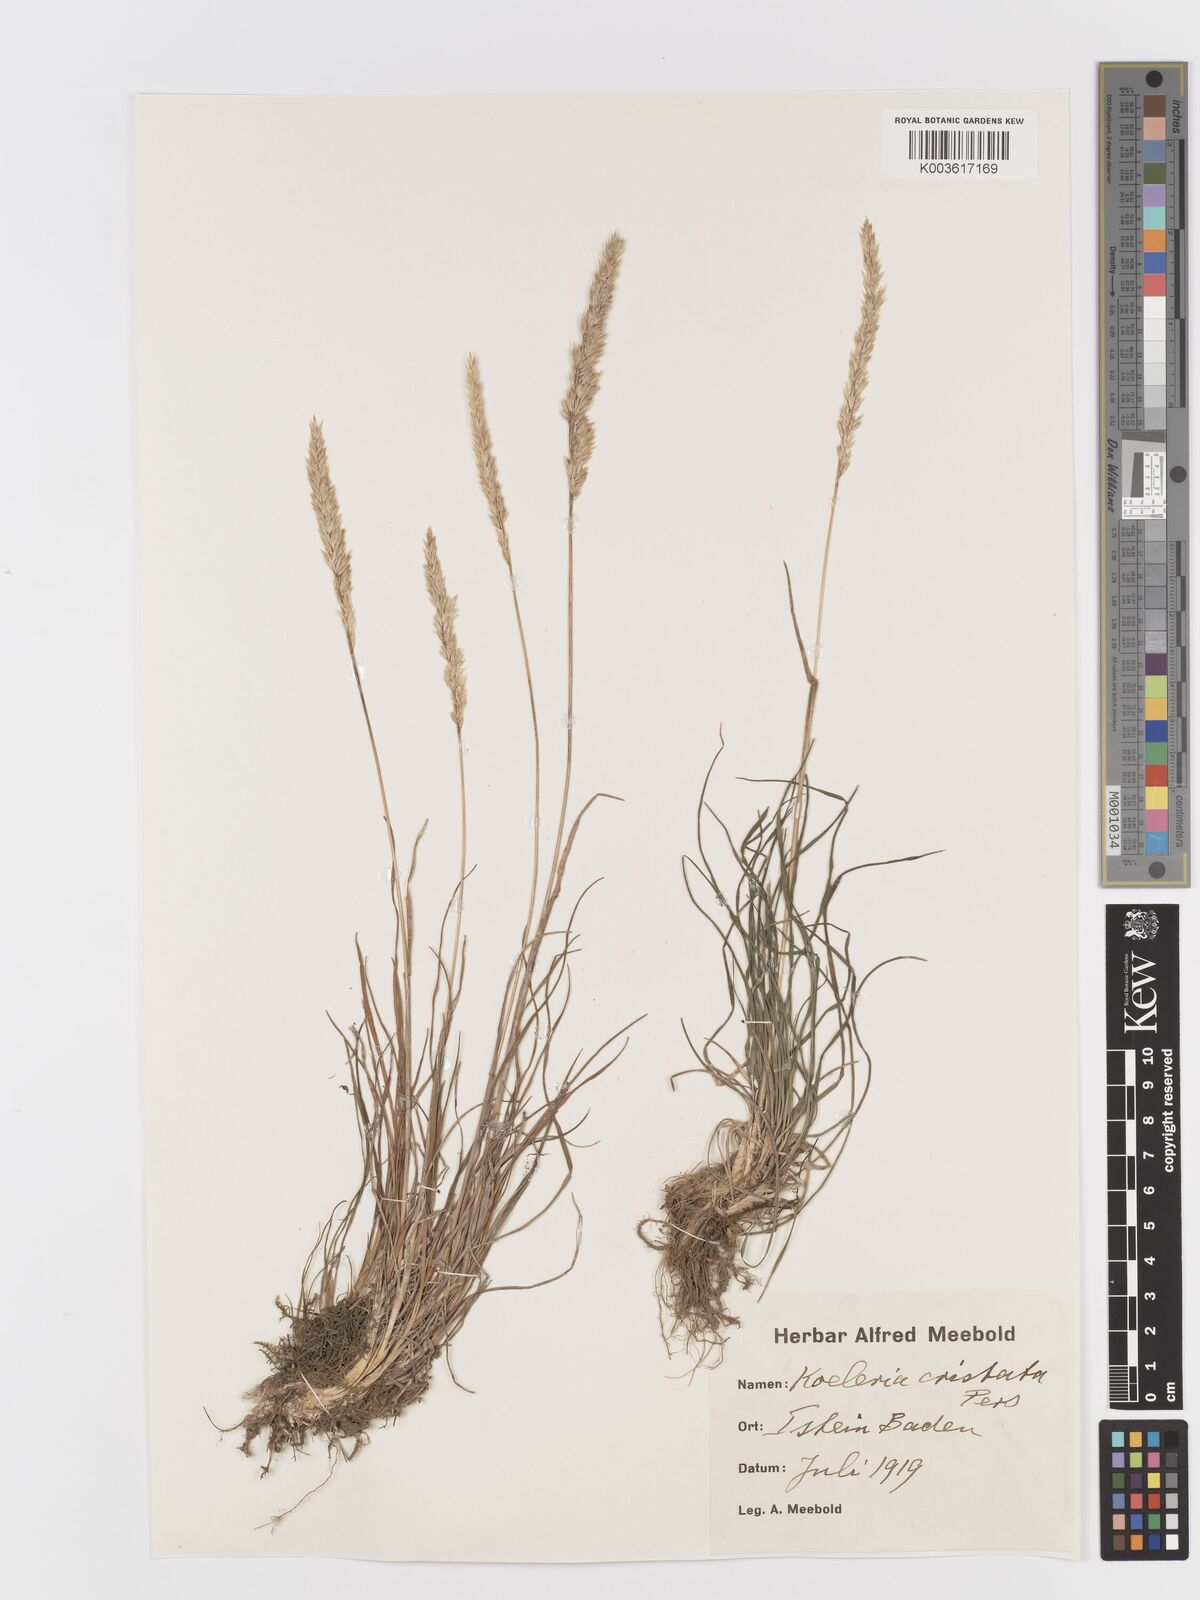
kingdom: Plantae
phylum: Tracheophyta
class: Liliopsida
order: Poales
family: Poaceae
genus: Koeleria
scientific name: Koeleria macrantha
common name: Crested hair-grass
